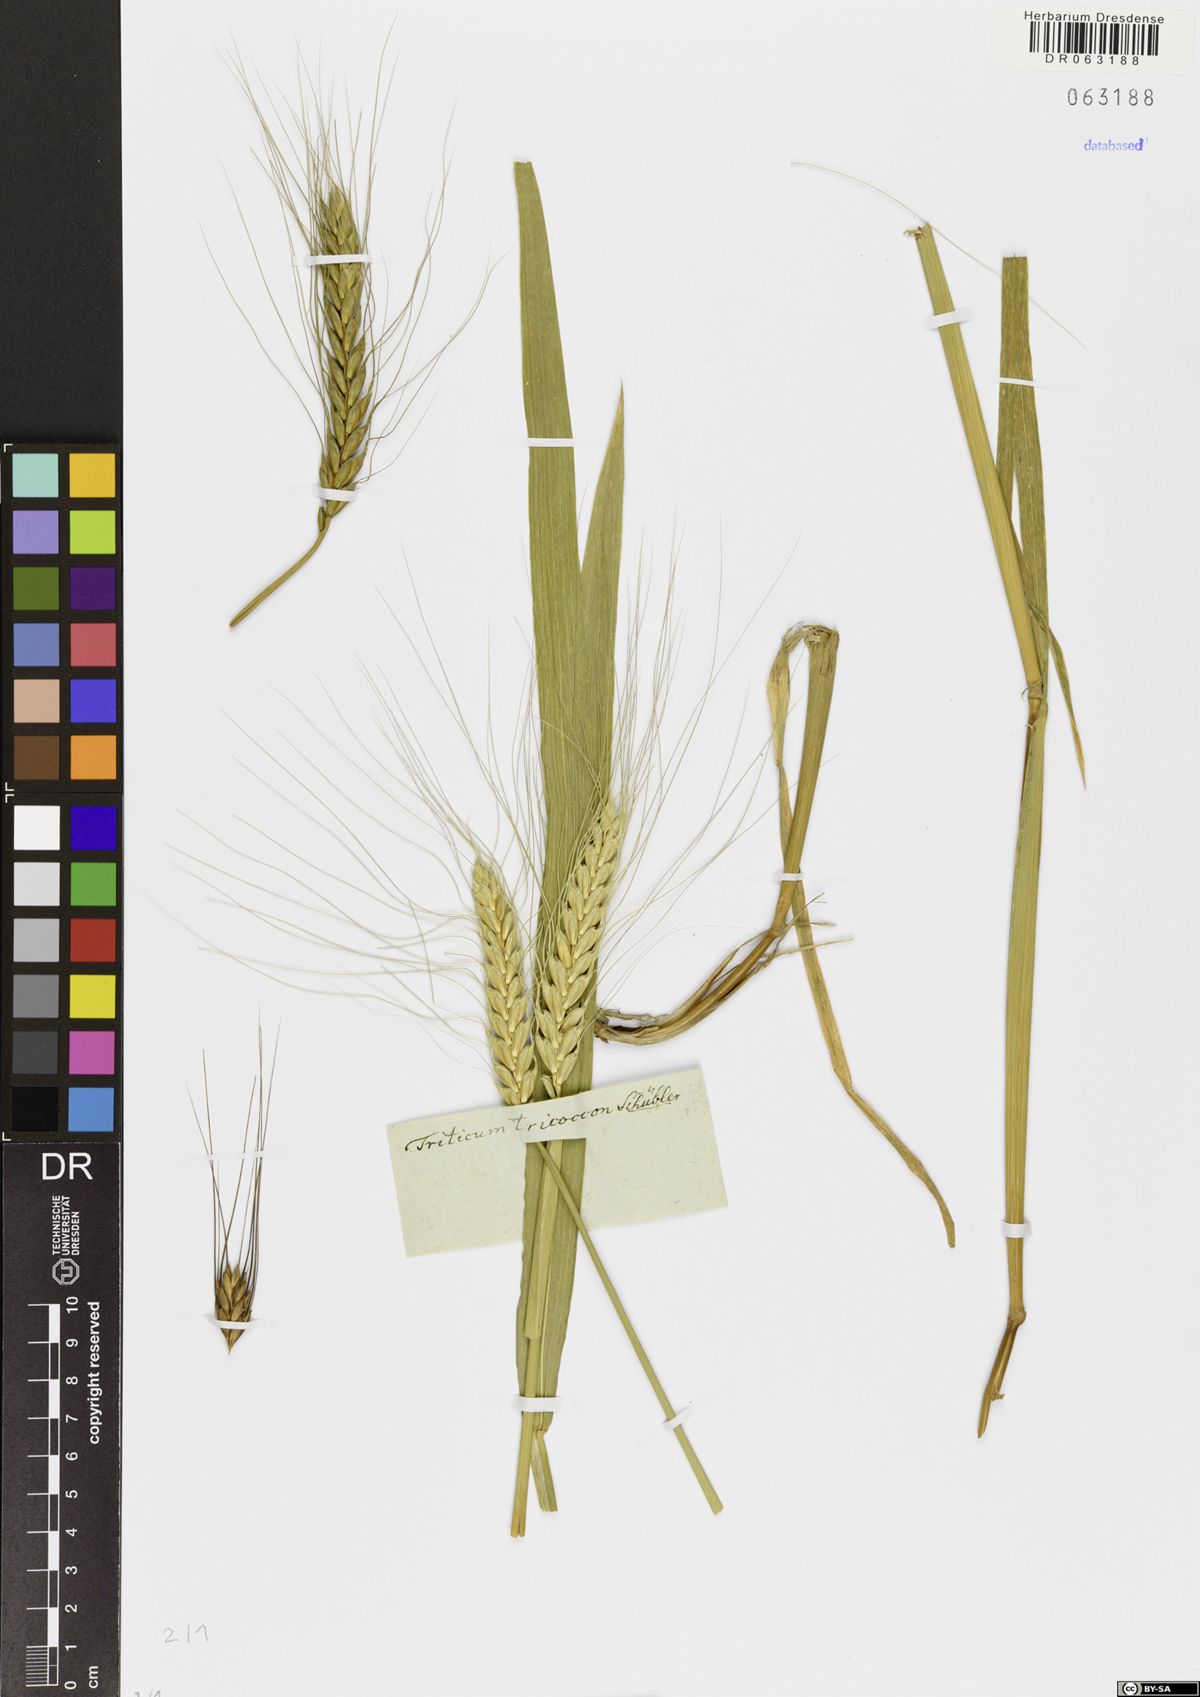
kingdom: Plantae
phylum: Tracheophyta
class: Liliopsida
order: Poales
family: Poaceae
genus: Triticum
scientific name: Triticum turgidum
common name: Rivet wheat
